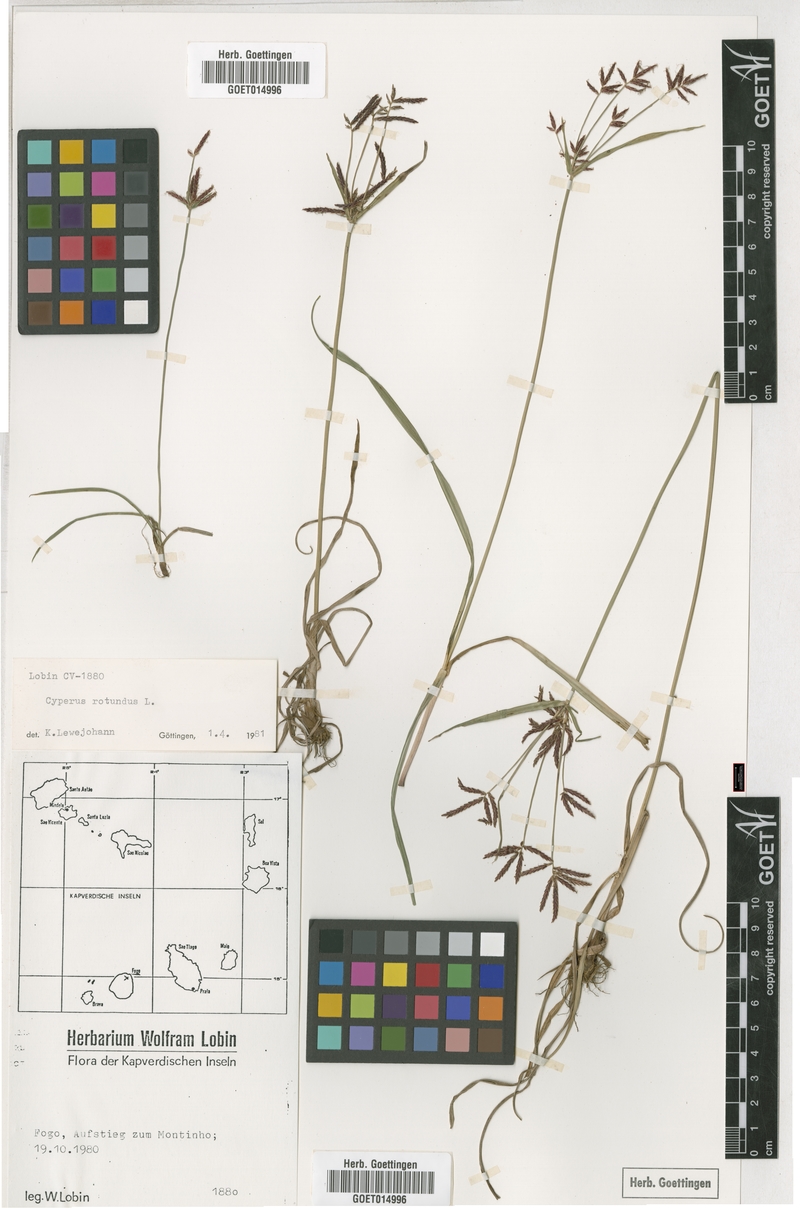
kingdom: Plantae
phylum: Tracheophyta
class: Liliopsida
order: Poales
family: Cyperaceae
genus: Cyperus
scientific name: Cyperus rotundus
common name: Nutgrass
